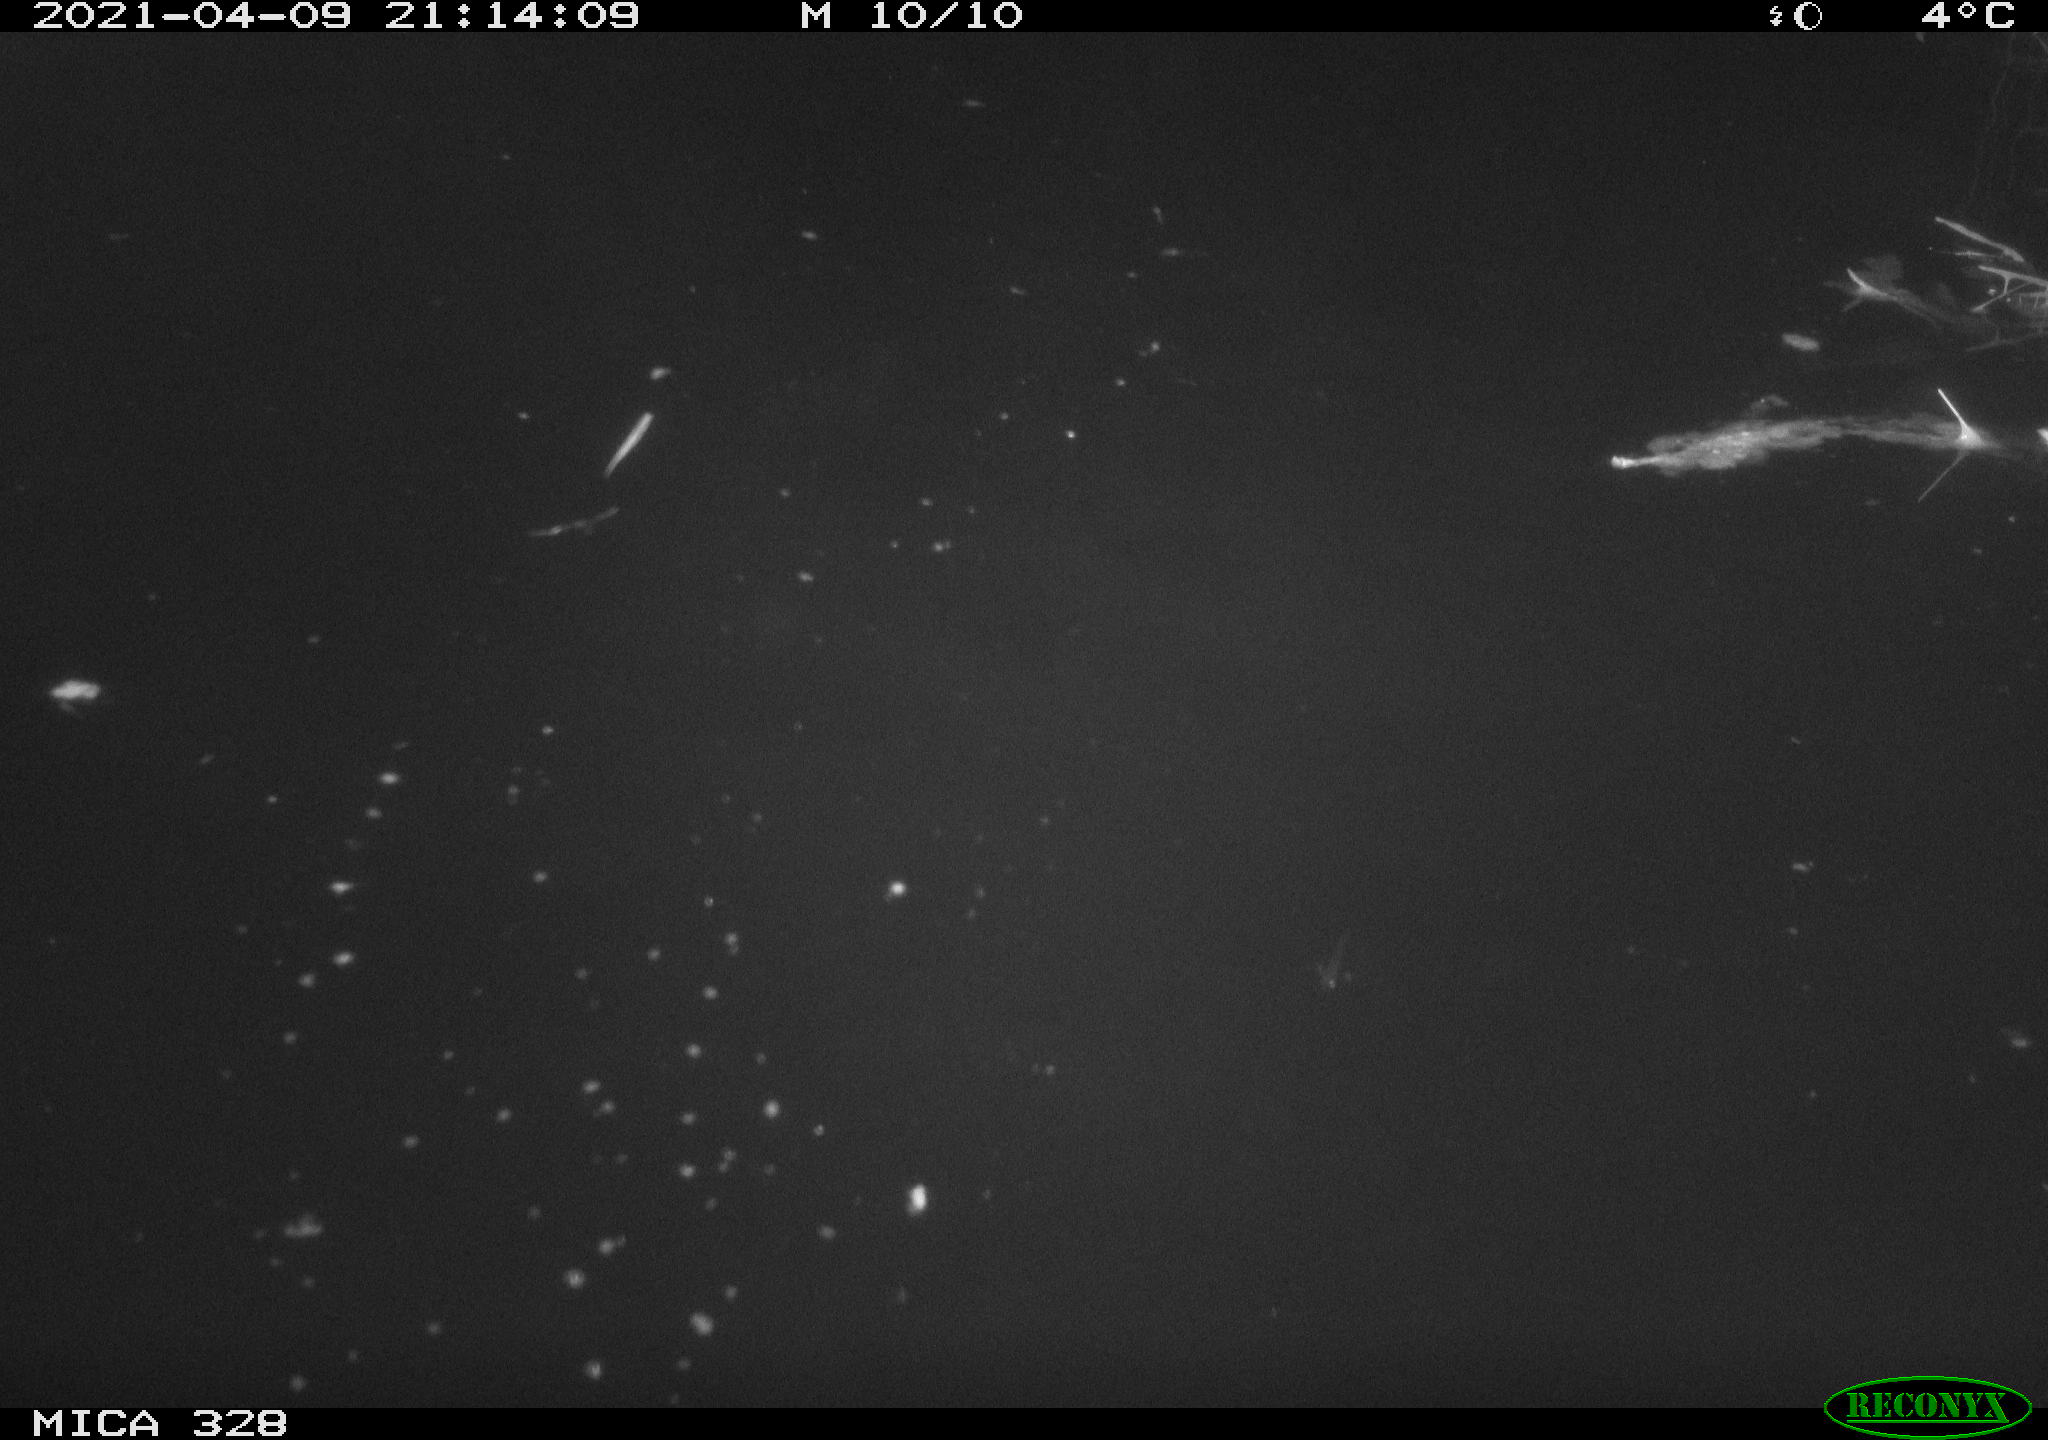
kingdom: Animalia
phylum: Chordata
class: Mammalia
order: Rodentia
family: Cricetidae
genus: Ondatra
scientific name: Ondatra zibethicus
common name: Muskrat
